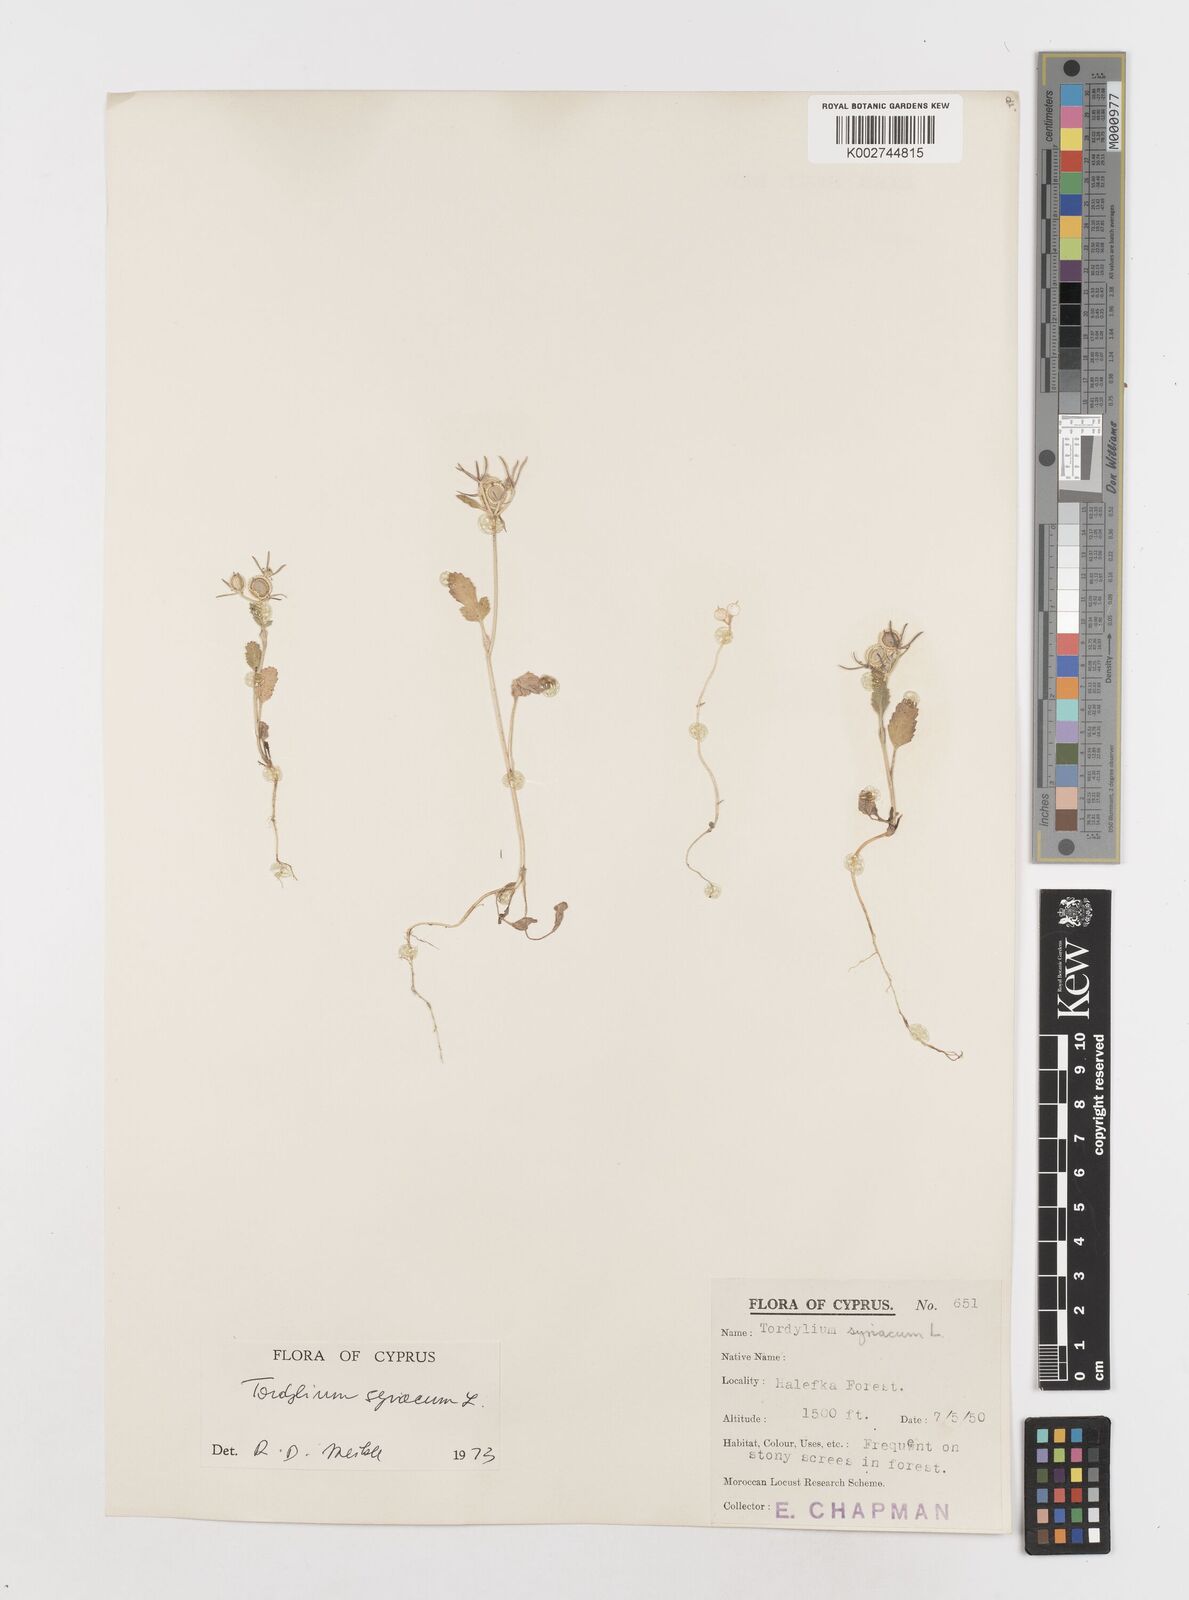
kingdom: Plantae
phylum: Tracheophyta
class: Magnoliopsida
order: Apiales
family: Apiaceae
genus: Tordylium
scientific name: Tordylium syriacum
